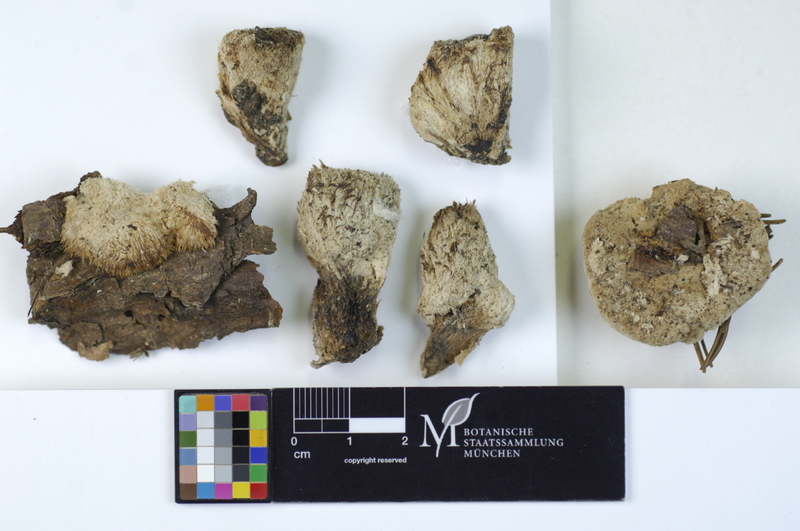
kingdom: Plantae
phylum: Tracheophyta
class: Pinopsida
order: Pinales
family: Pinaceae
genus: Picea
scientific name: Picea
